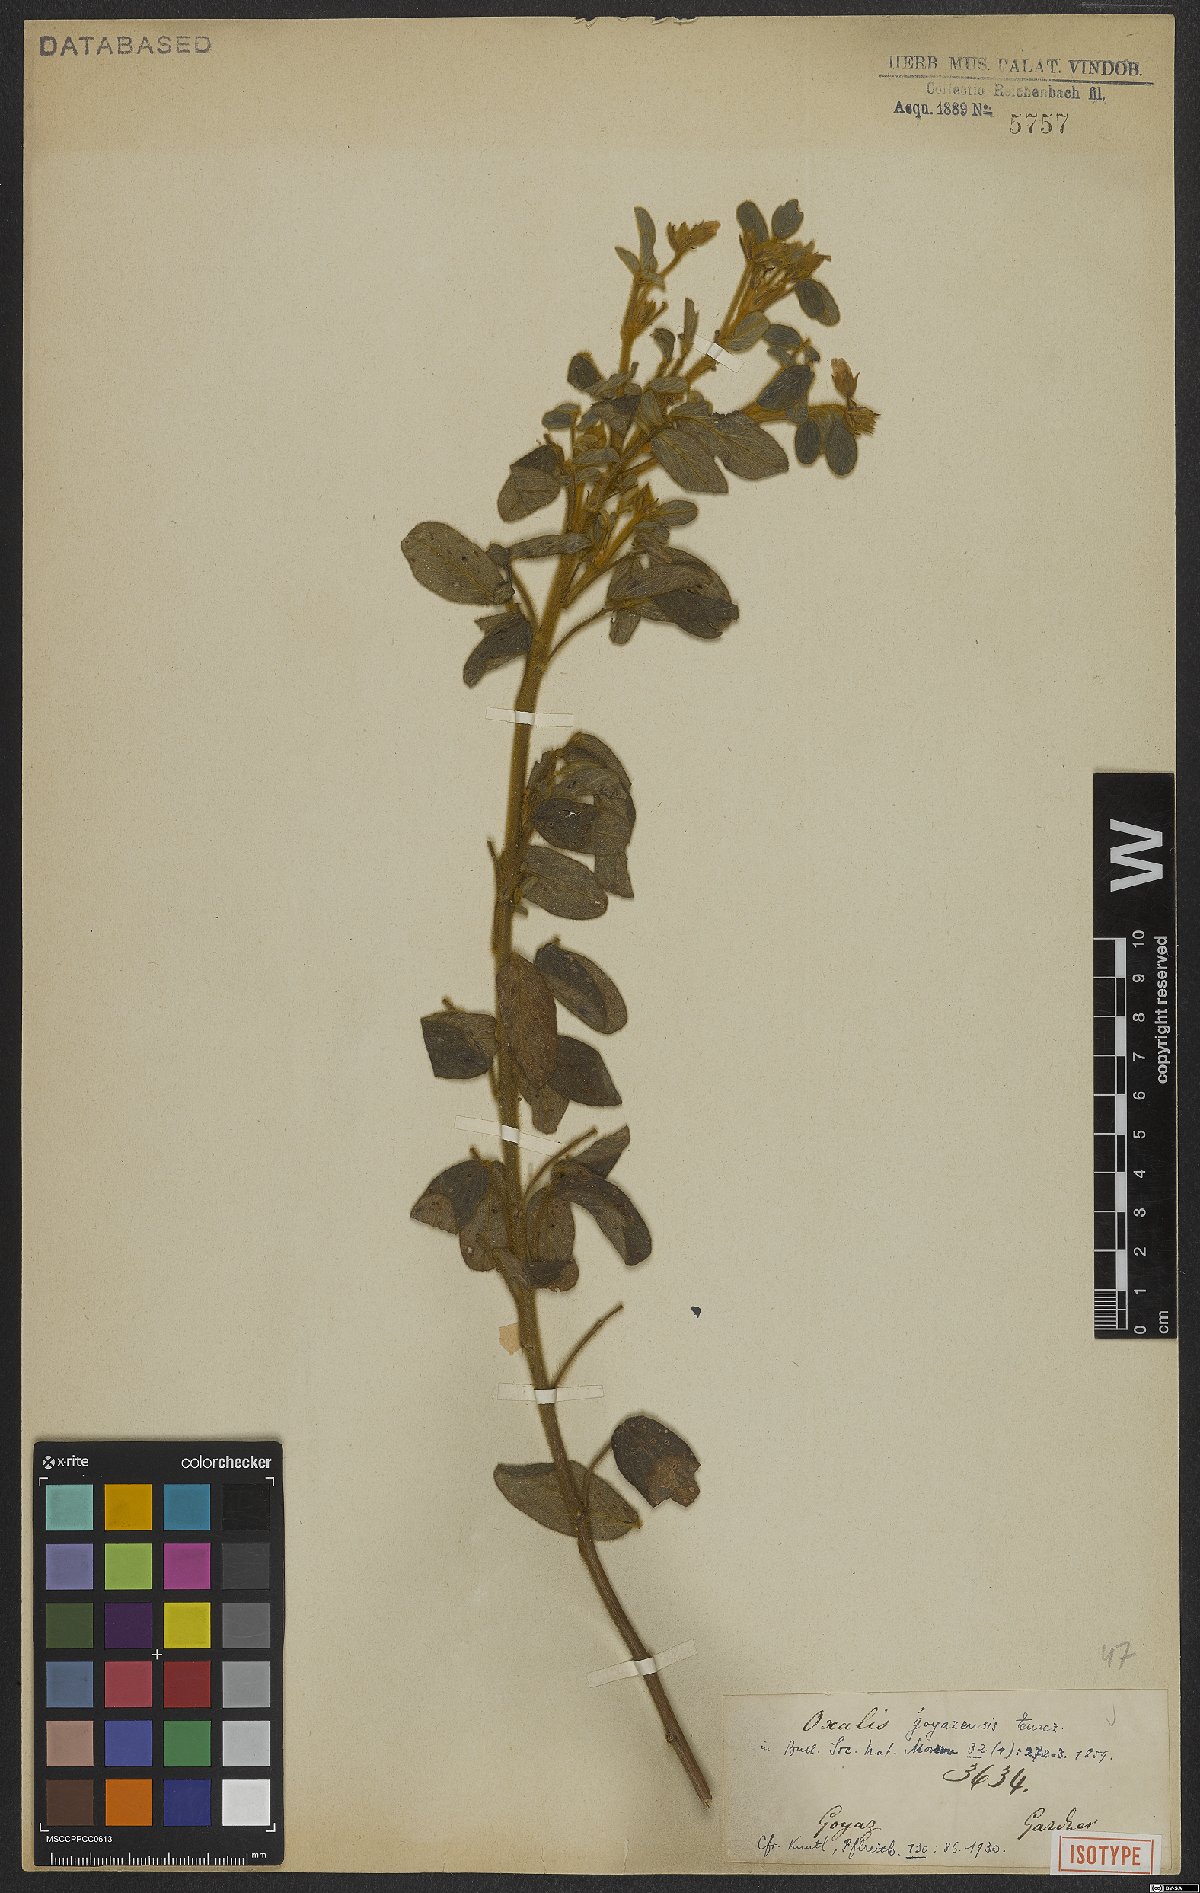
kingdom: Plantae
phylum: Tracheophyta
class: Magnoliopsida
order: Oxalidales
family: Oxalidaceae
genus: Oxalis
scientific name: Oxalis goyazensis
